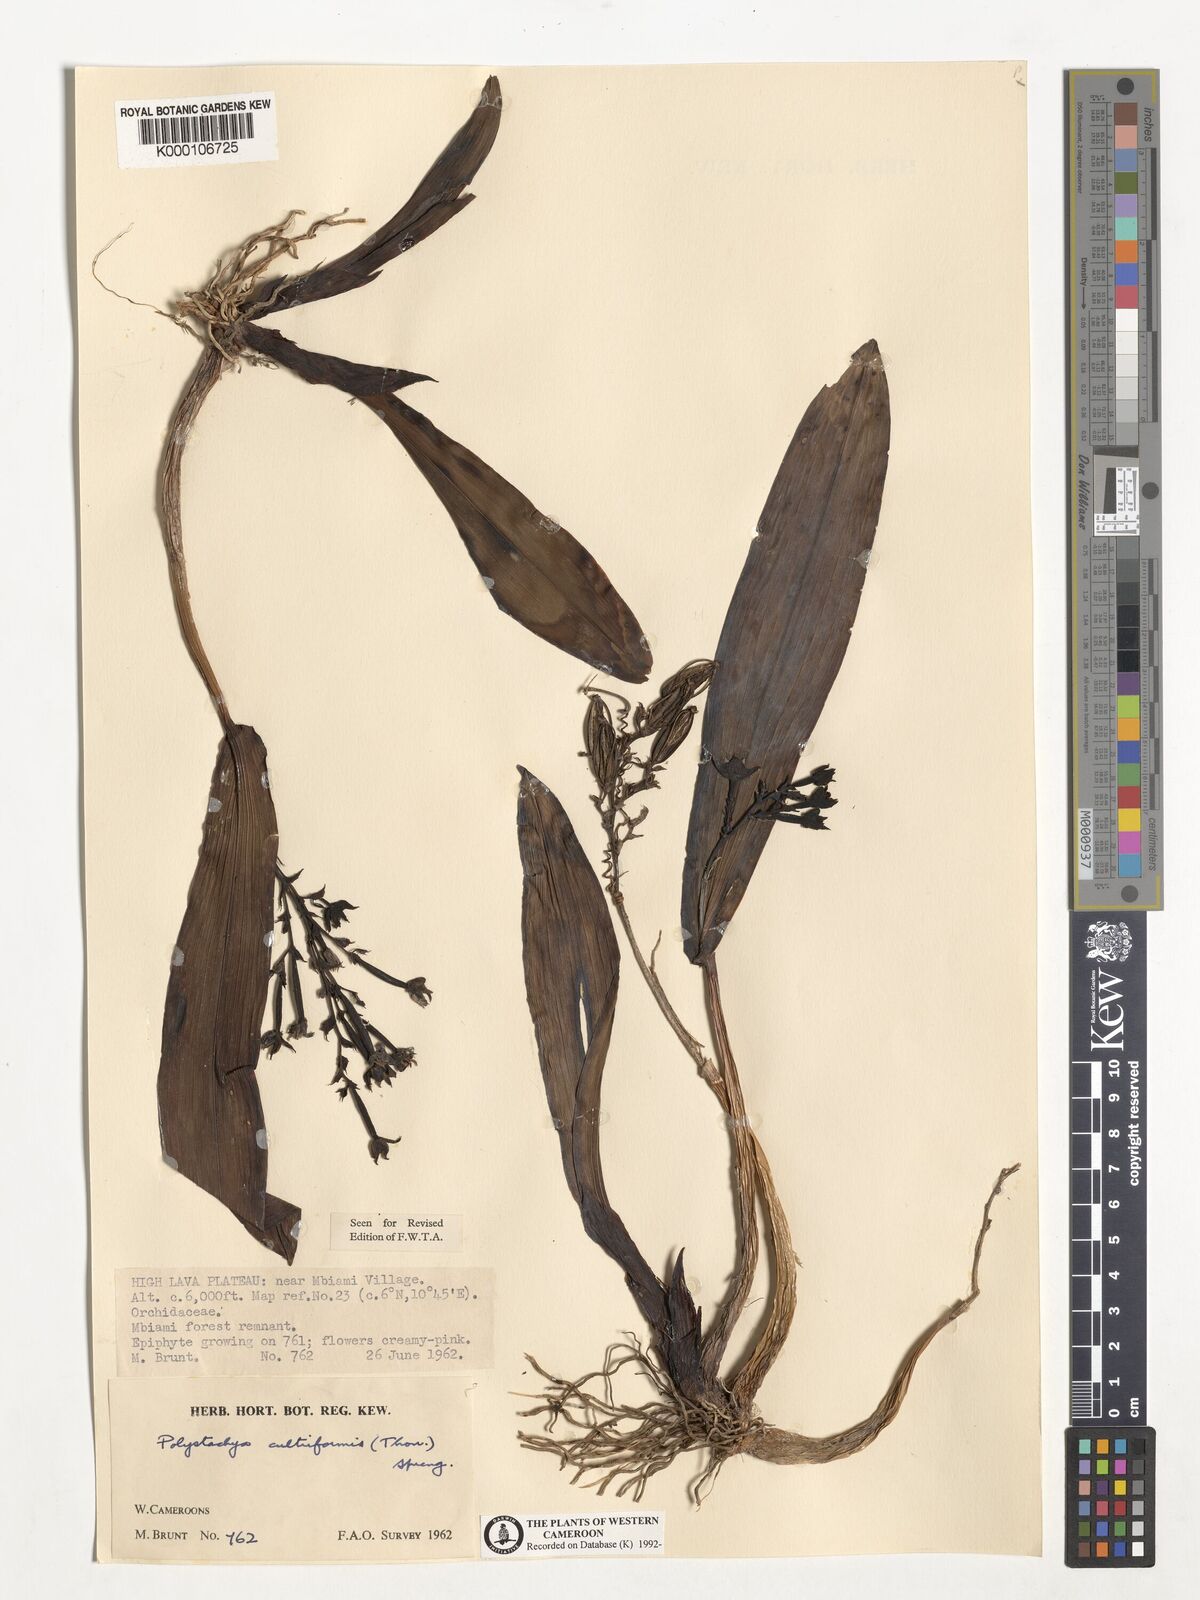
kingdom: Plantae
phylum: Tracheophyta
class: Liliopsida
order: Asparagales
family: Orchidaceae
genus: Polystachya
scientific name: Polystachya cultriformis
